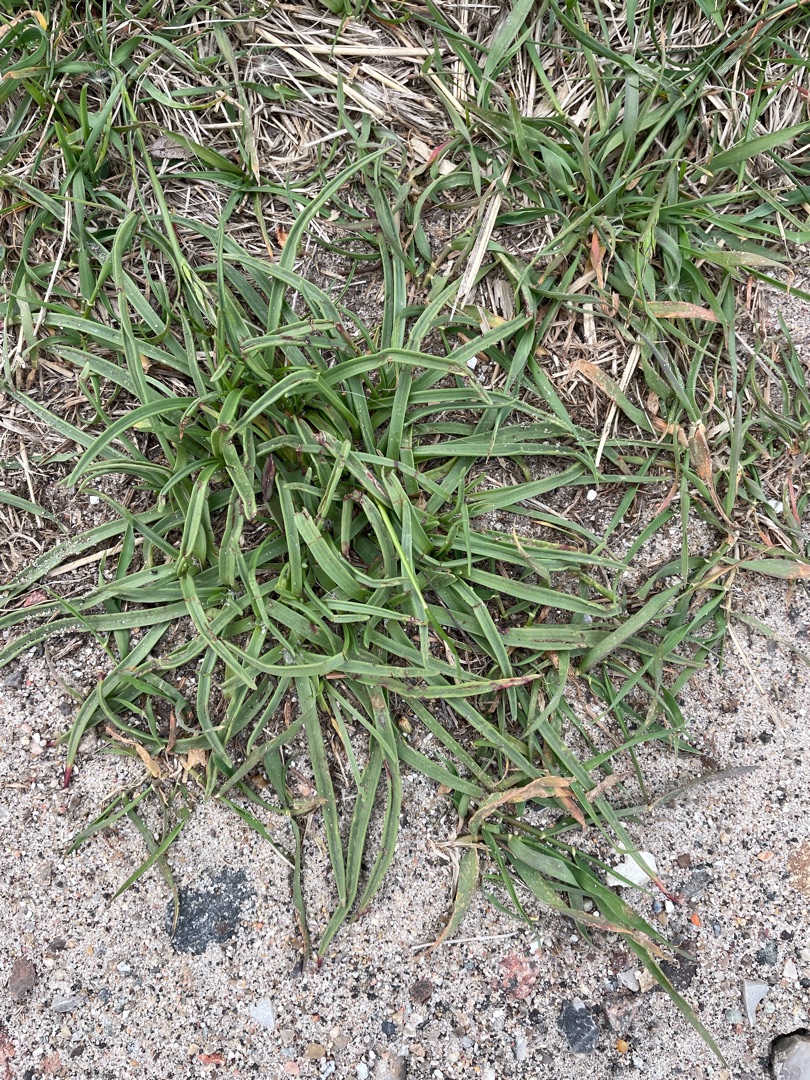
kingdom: Plantae
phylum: Tracheophyta
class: Magnoliopsida
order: Lamiales
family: Plantaginaceae
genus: Plantago
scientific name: Plantago maritima
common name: Strand-vejbred
